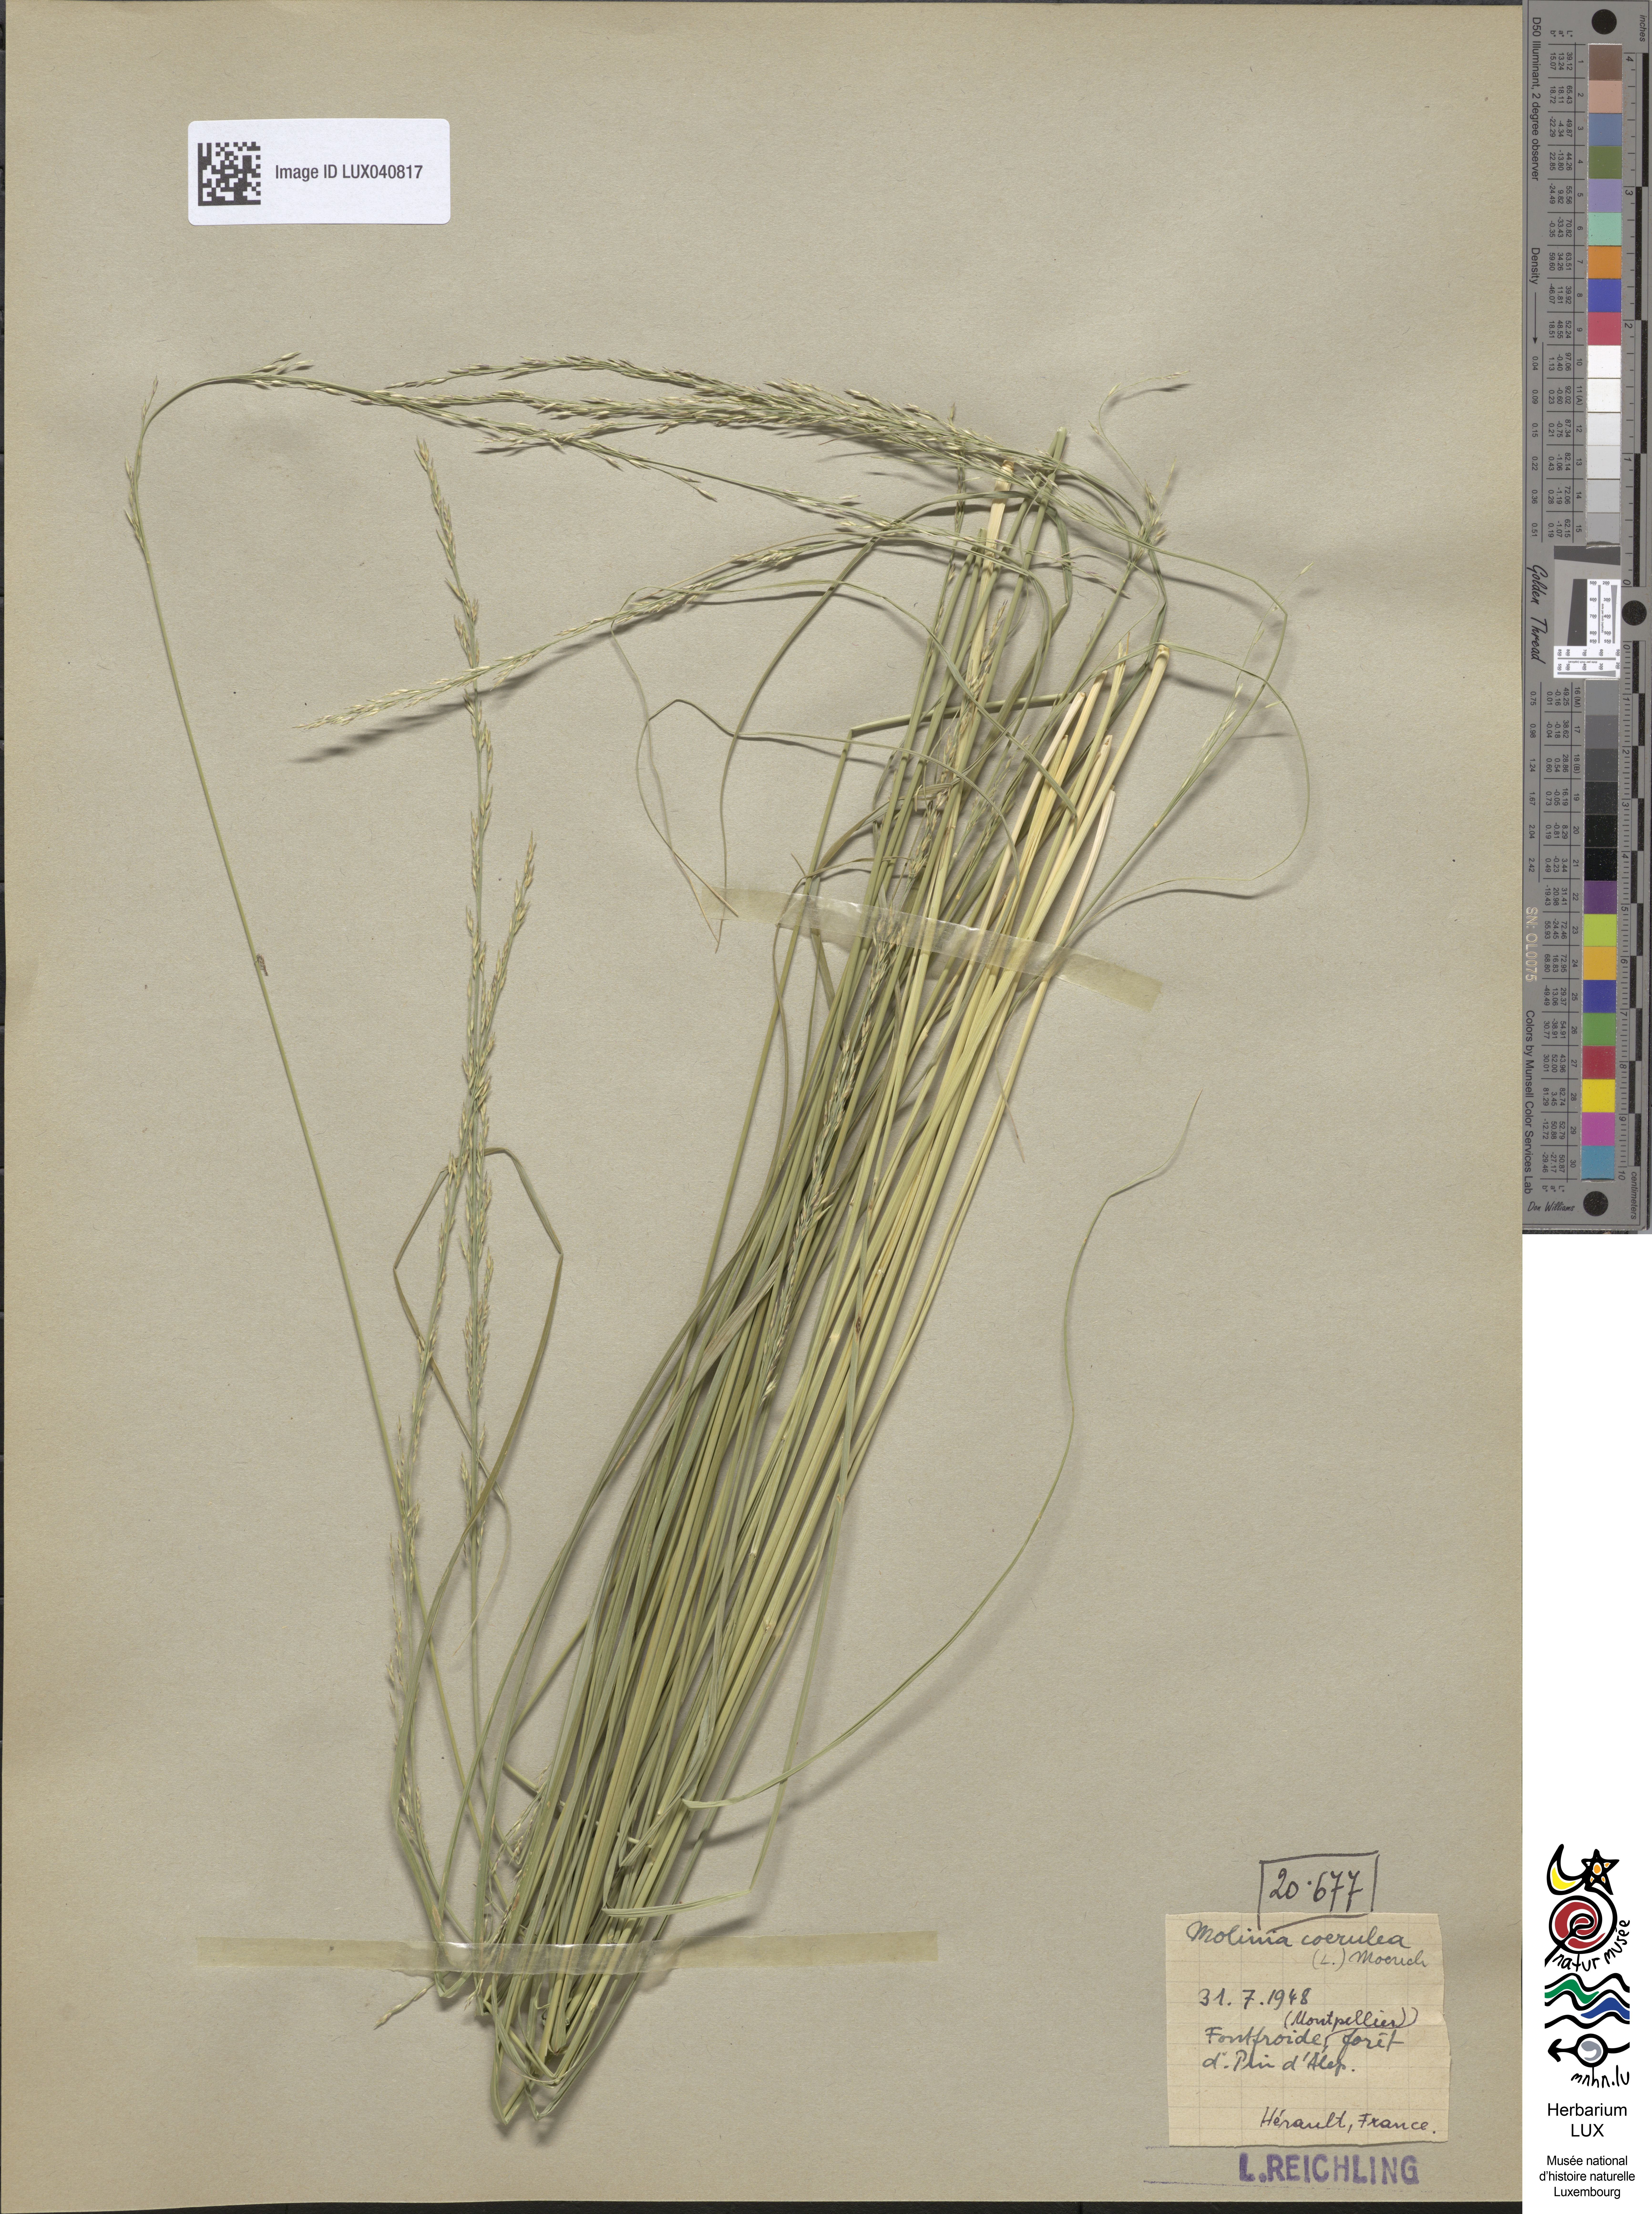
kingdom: Plantae
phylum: Tracheophyta
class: Liliopsida
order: Poales
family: Poaceae
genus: Molinia
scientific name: Molinia caerulea
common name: Purple moor-grass
